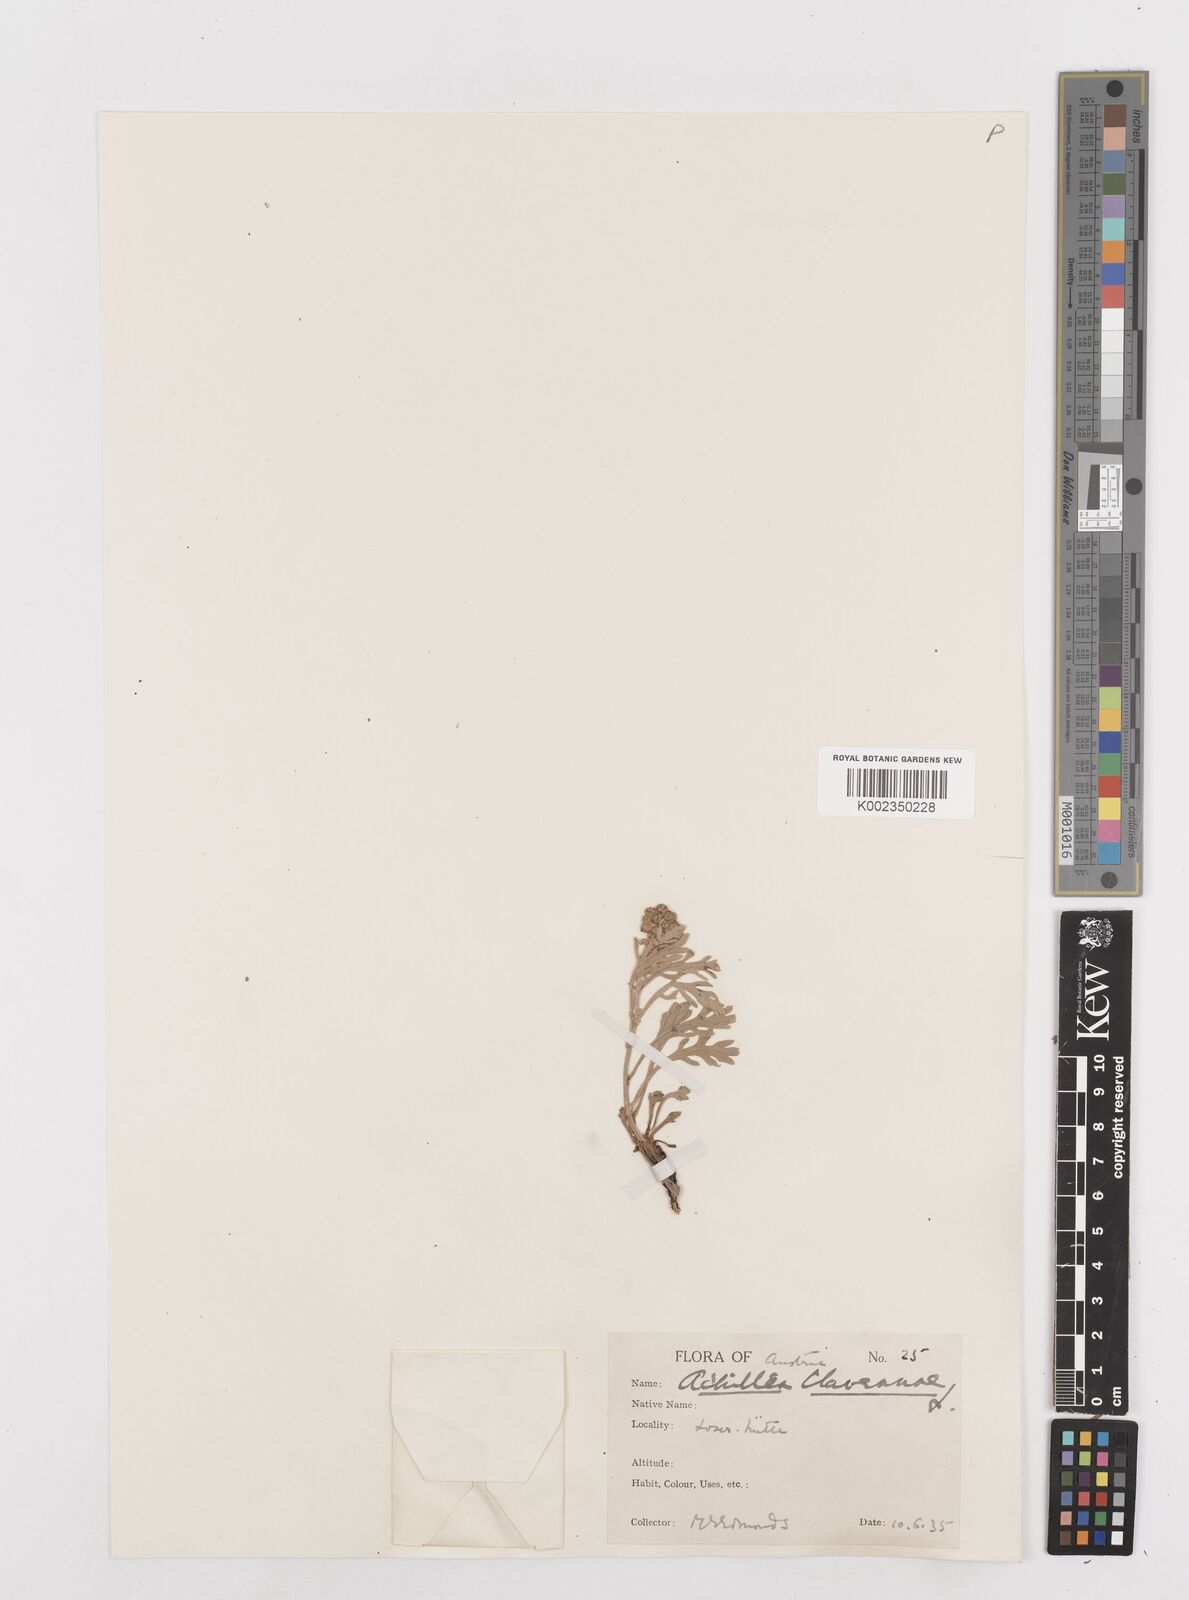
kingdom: Plantae
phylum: Tracheophyta
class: Magnoliopsida
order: Asterales
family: Asteraceae
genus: Achillea
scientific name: Achillea clavennae
